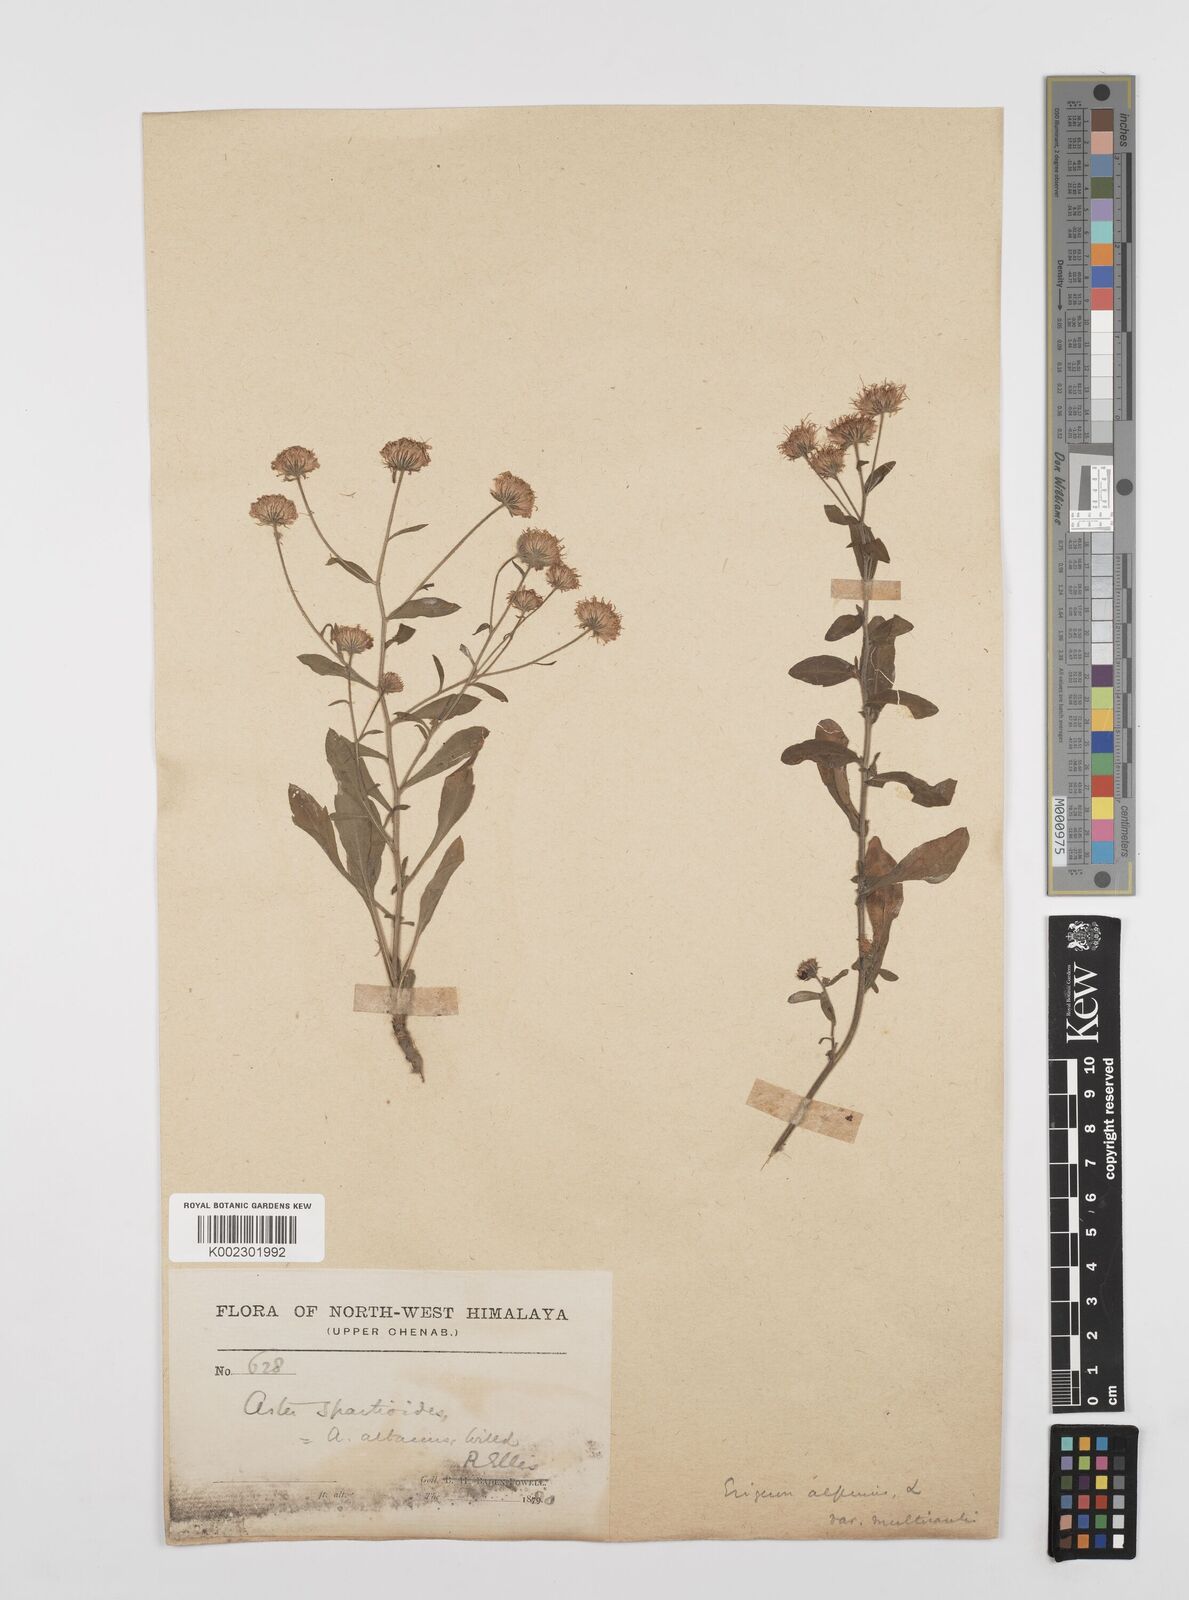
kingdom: Plantae
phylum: Tracheophyta
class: Magnoliopsida
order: Asterales
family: Asteraceae
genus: Erigeron
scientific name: Erigeron alpinus
